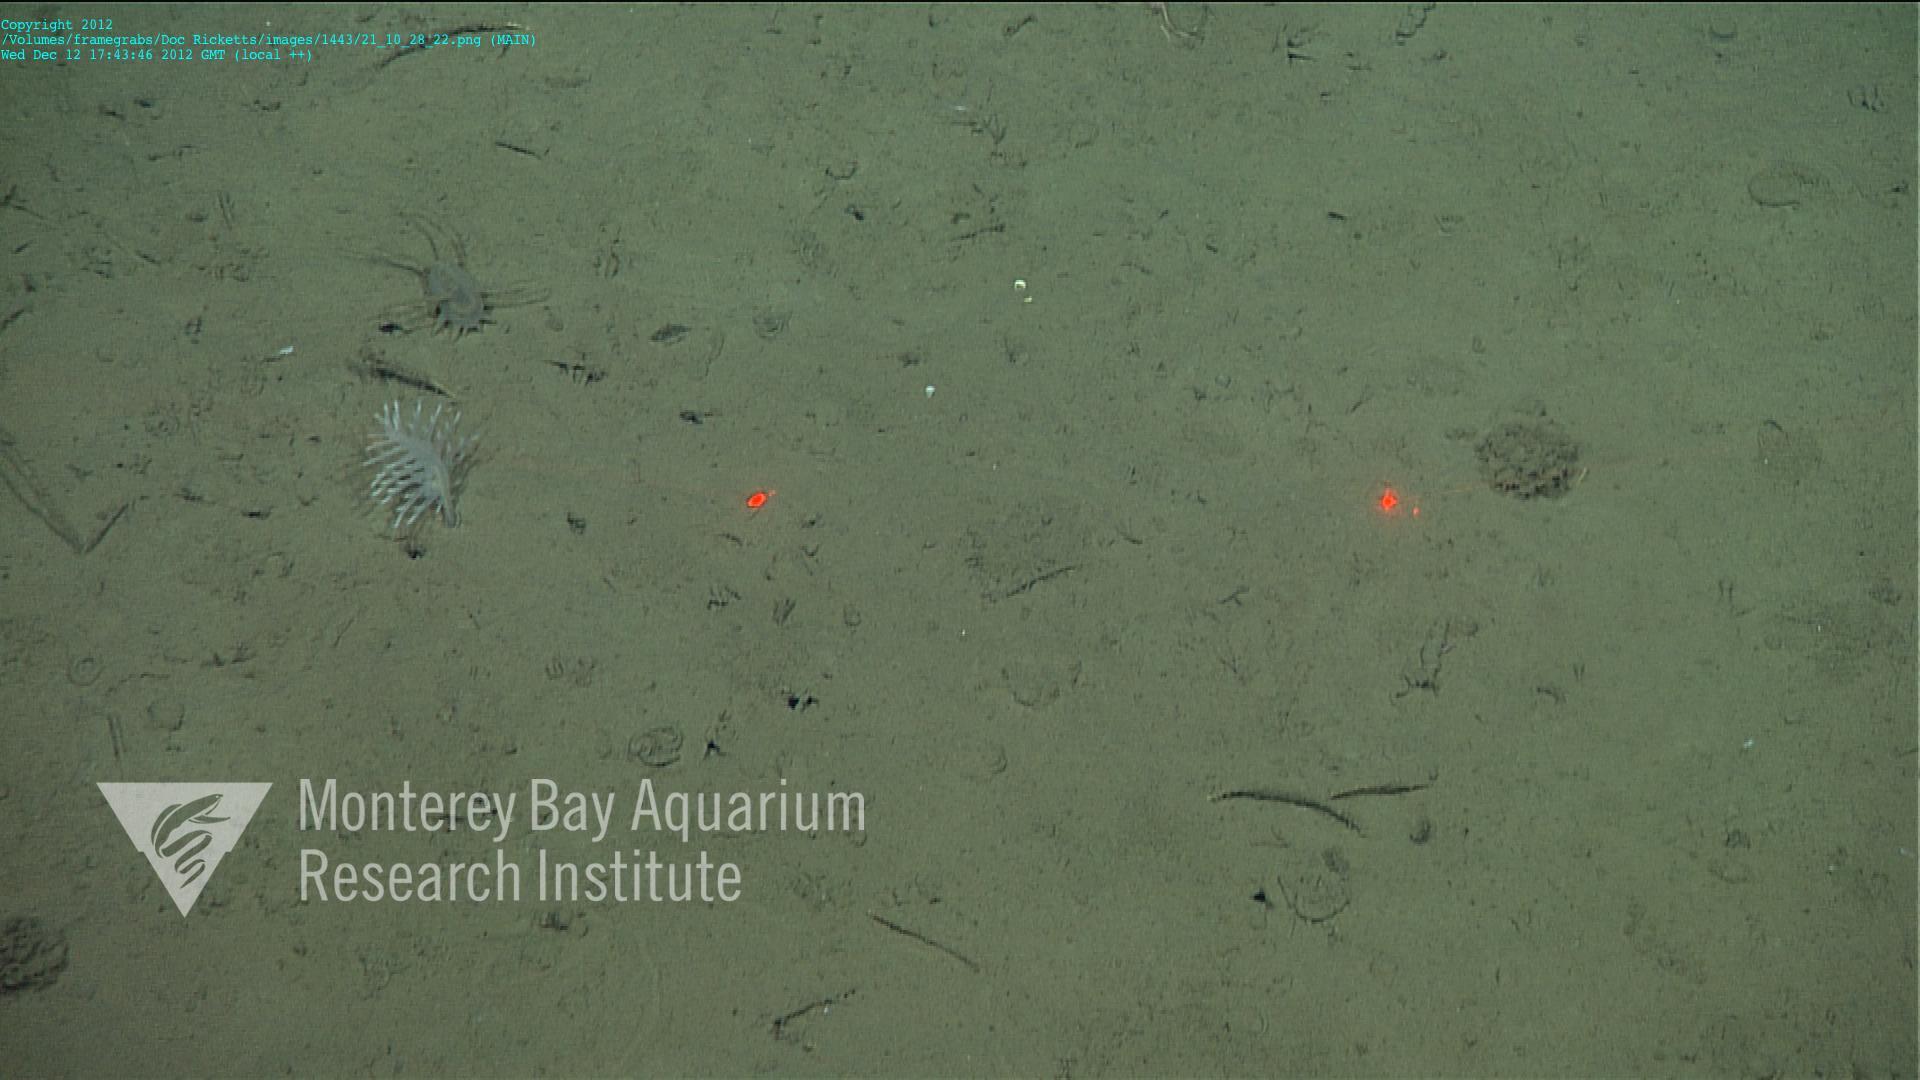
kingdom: Animalia
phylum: Cnidaria
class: Anthozoa
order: Scleralcyonacea
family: Pennatulidae
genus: Pennatula
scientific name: Pennatula
